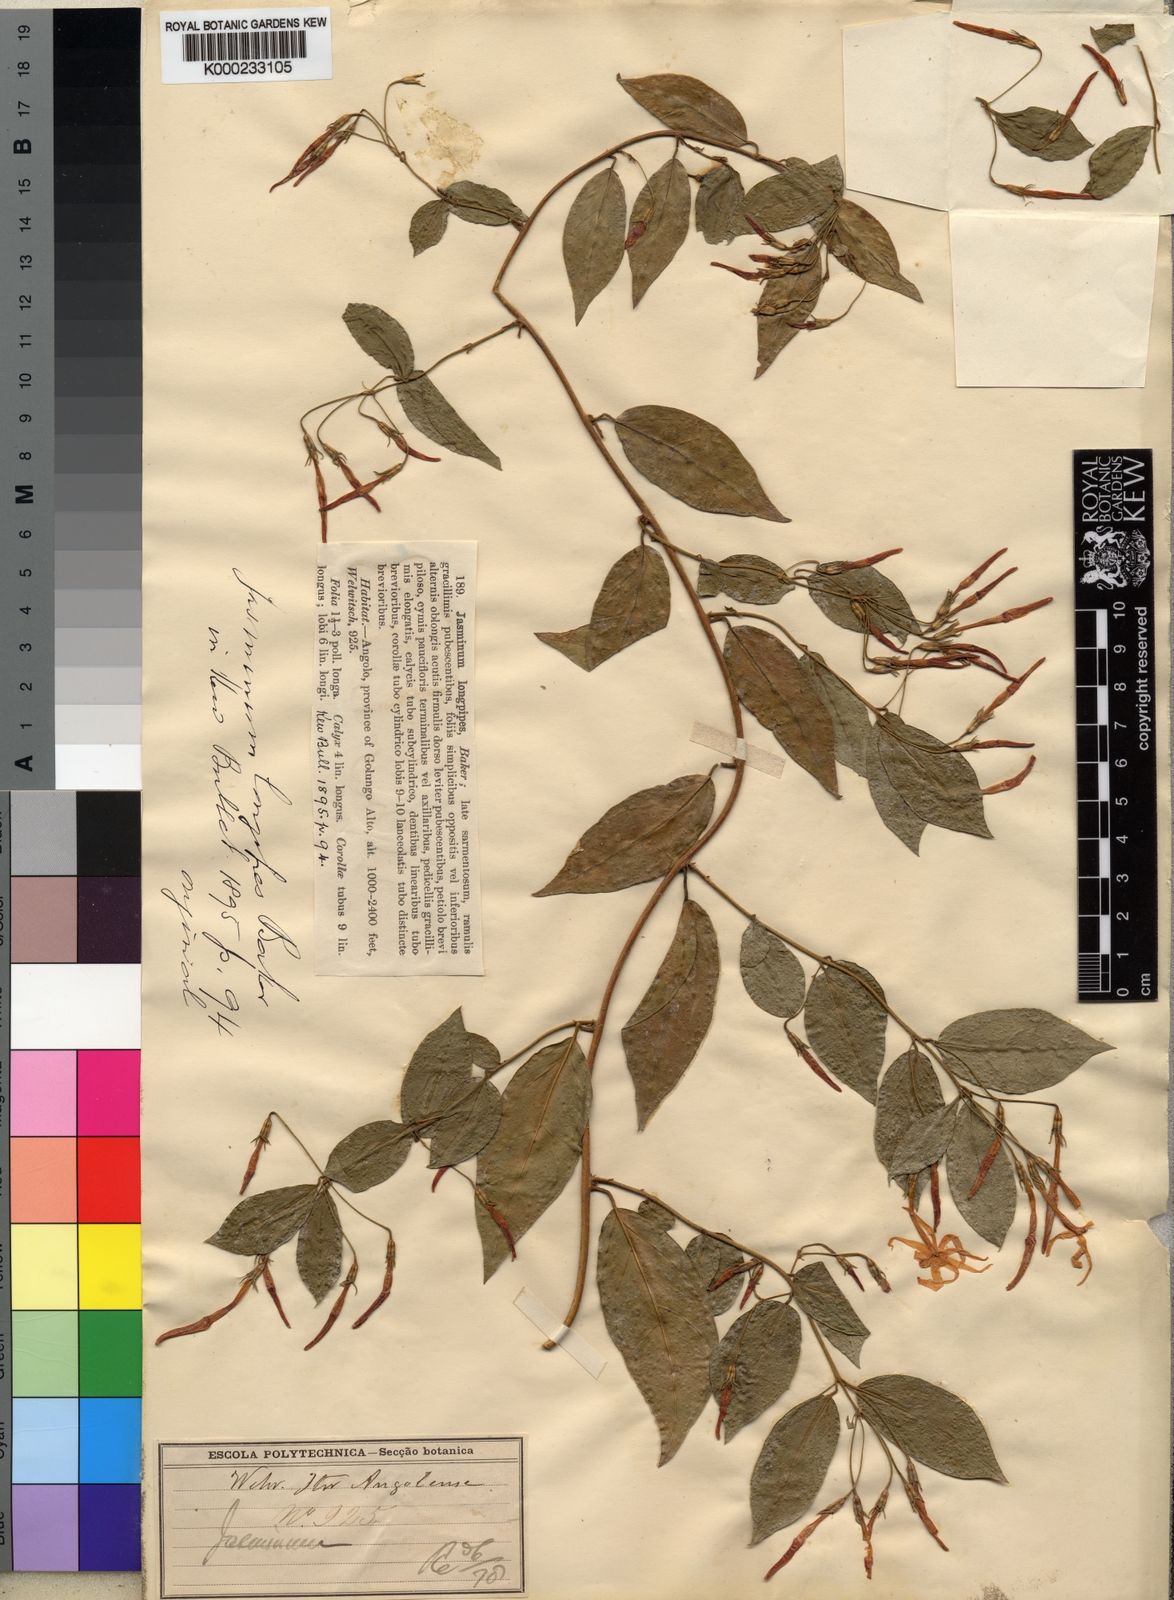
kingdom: Plantae
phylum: Tracheophyta
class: Magnoliopsida
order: Lamiales
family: Oleaceae
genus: Jasminum
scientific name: Jasminum pauciflorum
